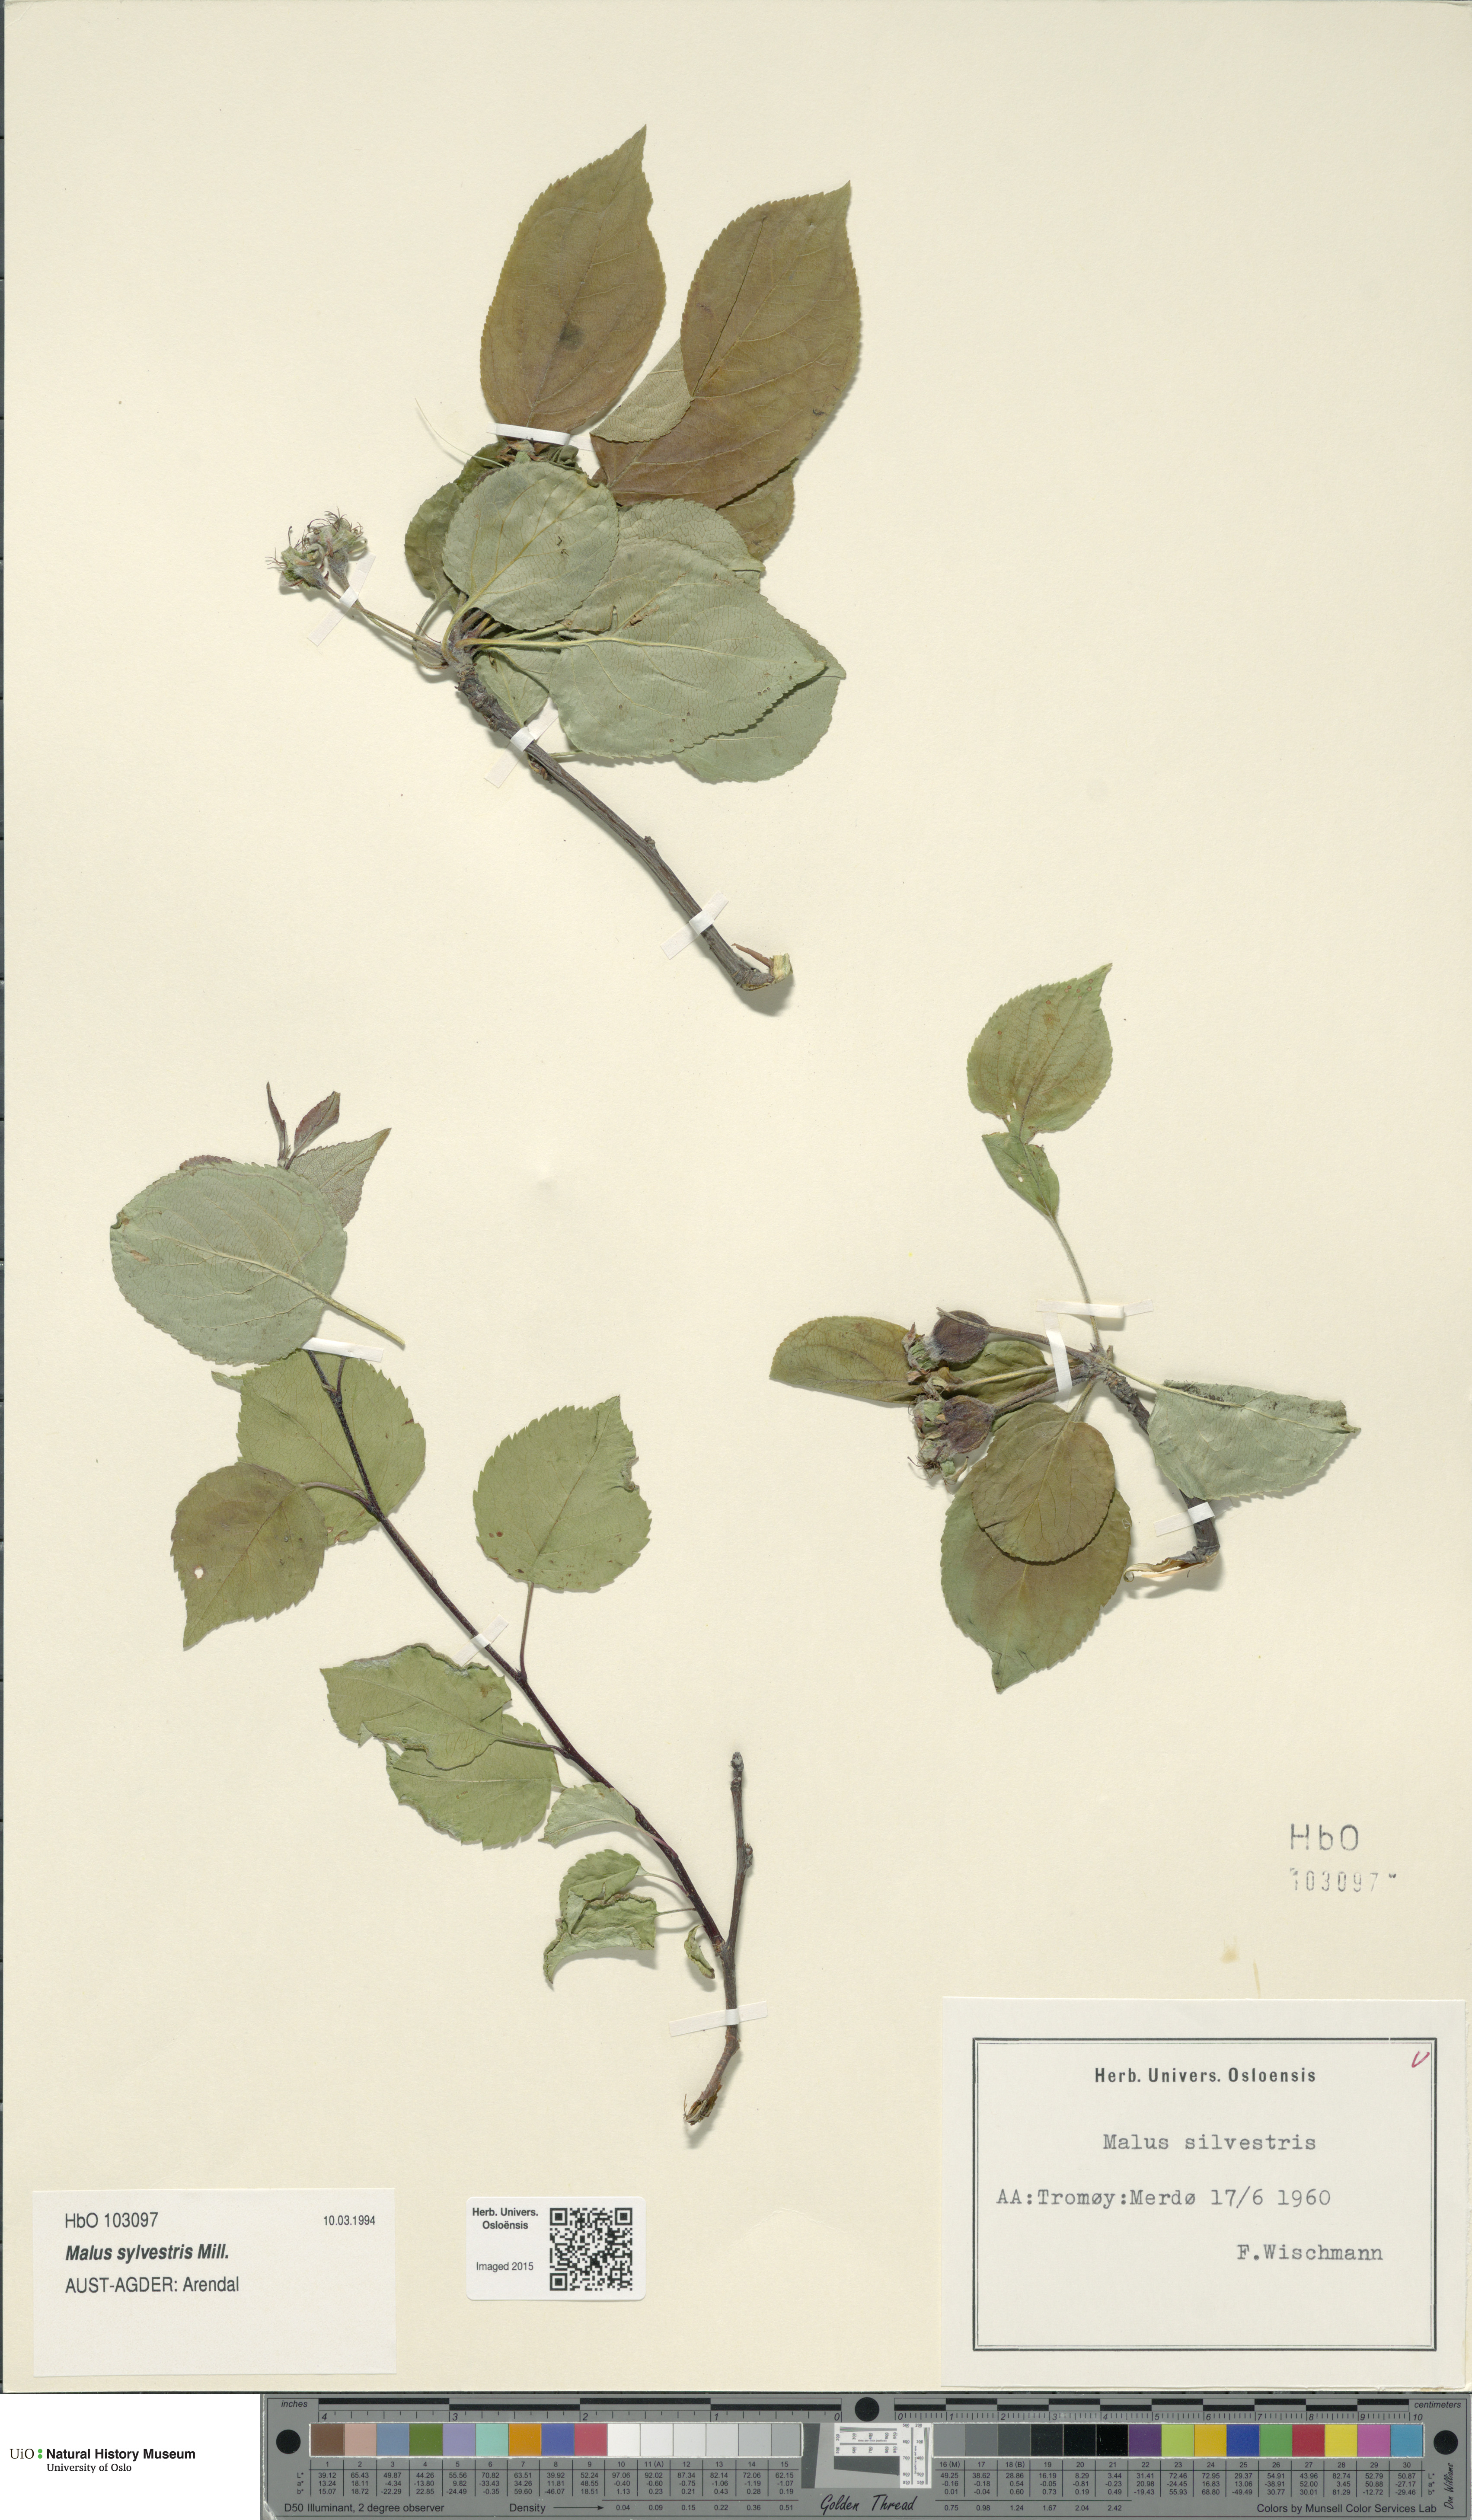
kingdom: Plantae
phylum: Tracheophyta
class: Magnoliopsida
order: Rosales
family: Rosaceae
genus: Malus
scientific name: Malus sylvestris
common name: Crab apple
